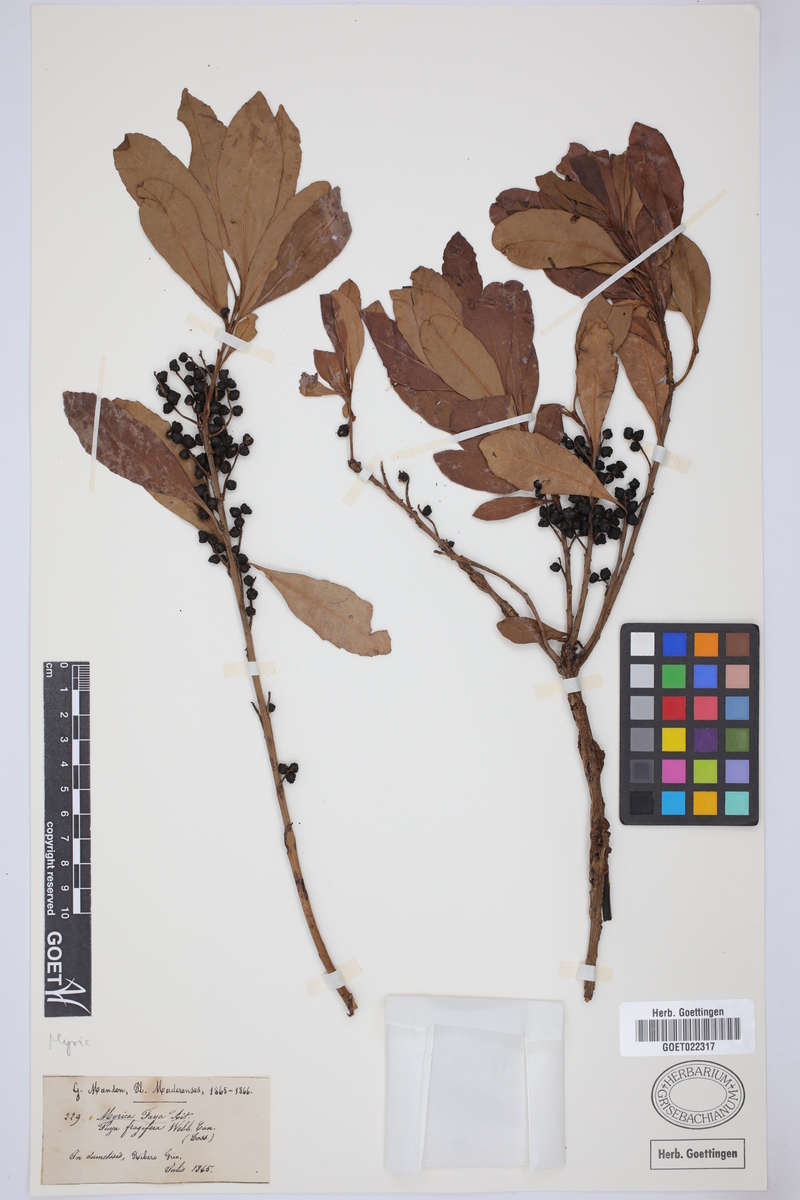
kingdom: Plantae
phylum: Tracheophyta
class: Magnoliopsida
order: Fagales
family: Myricaceae
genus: Morella
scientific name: Morella faya
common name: Firetree
